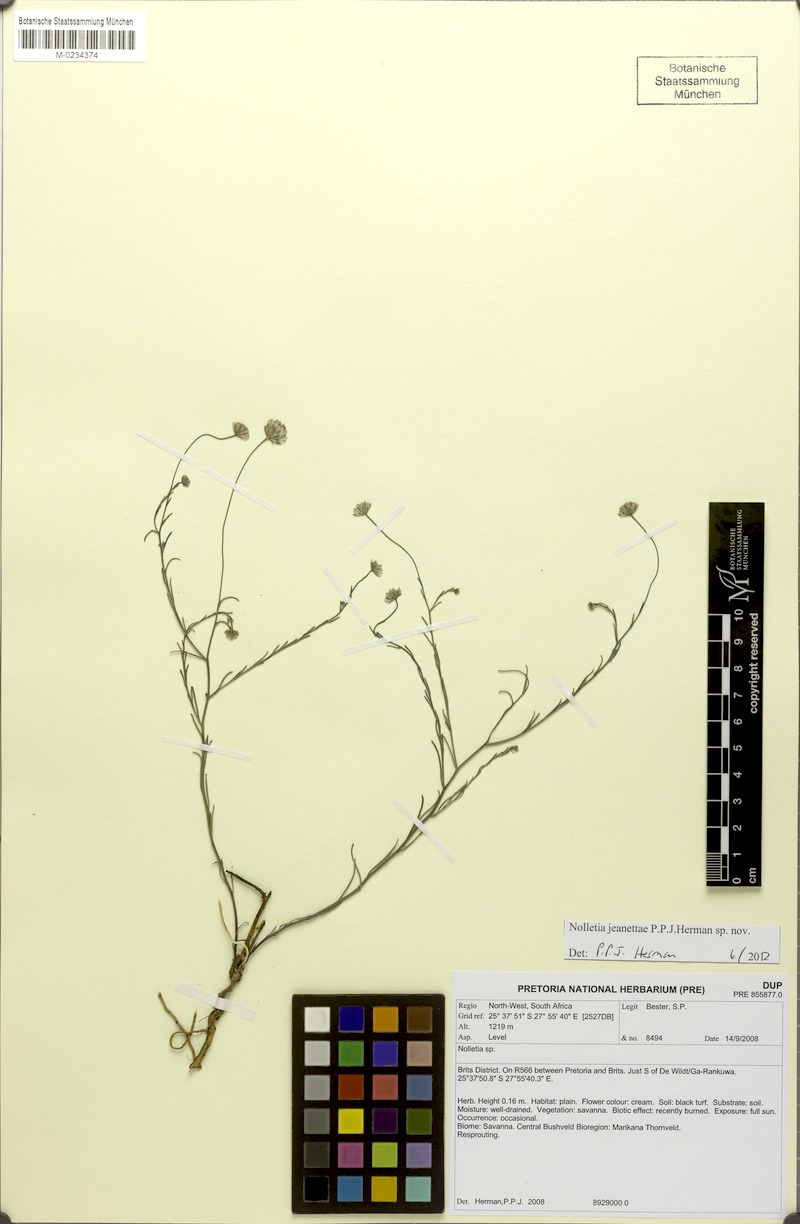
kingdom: Plantae
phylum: Tracheophyta
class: Magnoliopsida
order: Asterales
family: Asteraceae
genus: Nolletia
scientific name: Nolletia jeanettae
